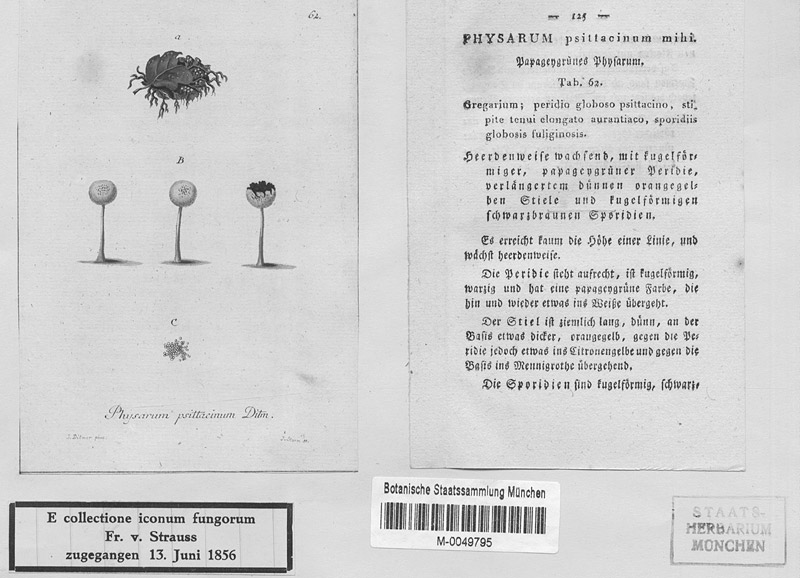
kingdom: Protozoa
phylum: Mycetozoa
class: Myxomycetes
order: Physarales
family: Physaraceae
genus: Physarum
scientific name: Physarum psittacinum
